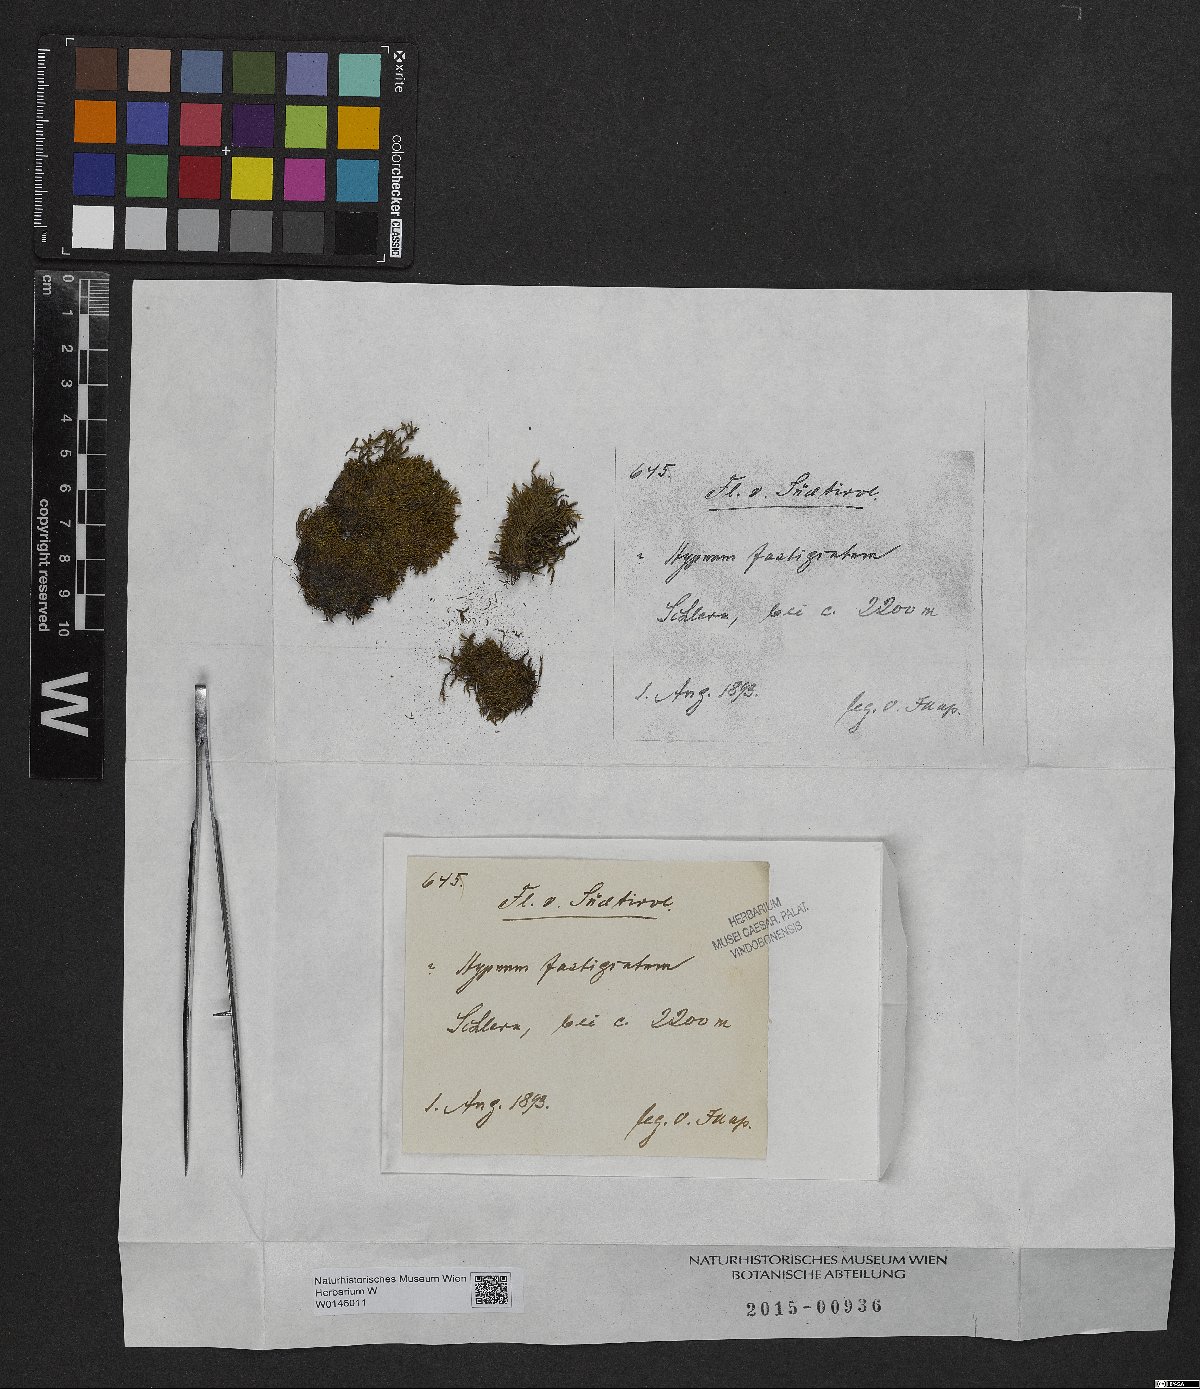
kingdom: Plantae
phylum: Bryophyta
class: Bryopsida
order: Hypnales
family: Amblystegiaceae
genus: Drepanium
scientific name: Drepanium fastigiatum
